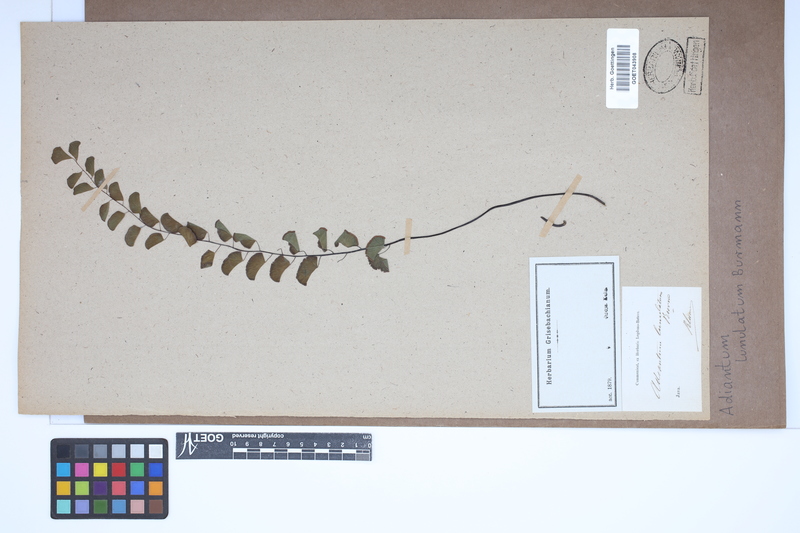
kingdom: Plantae
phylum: Tracheophyta
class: Polypodiopsida
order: Polypodiales
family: Pteridaceae
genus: Adiantum
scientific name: Adiantum philippense
